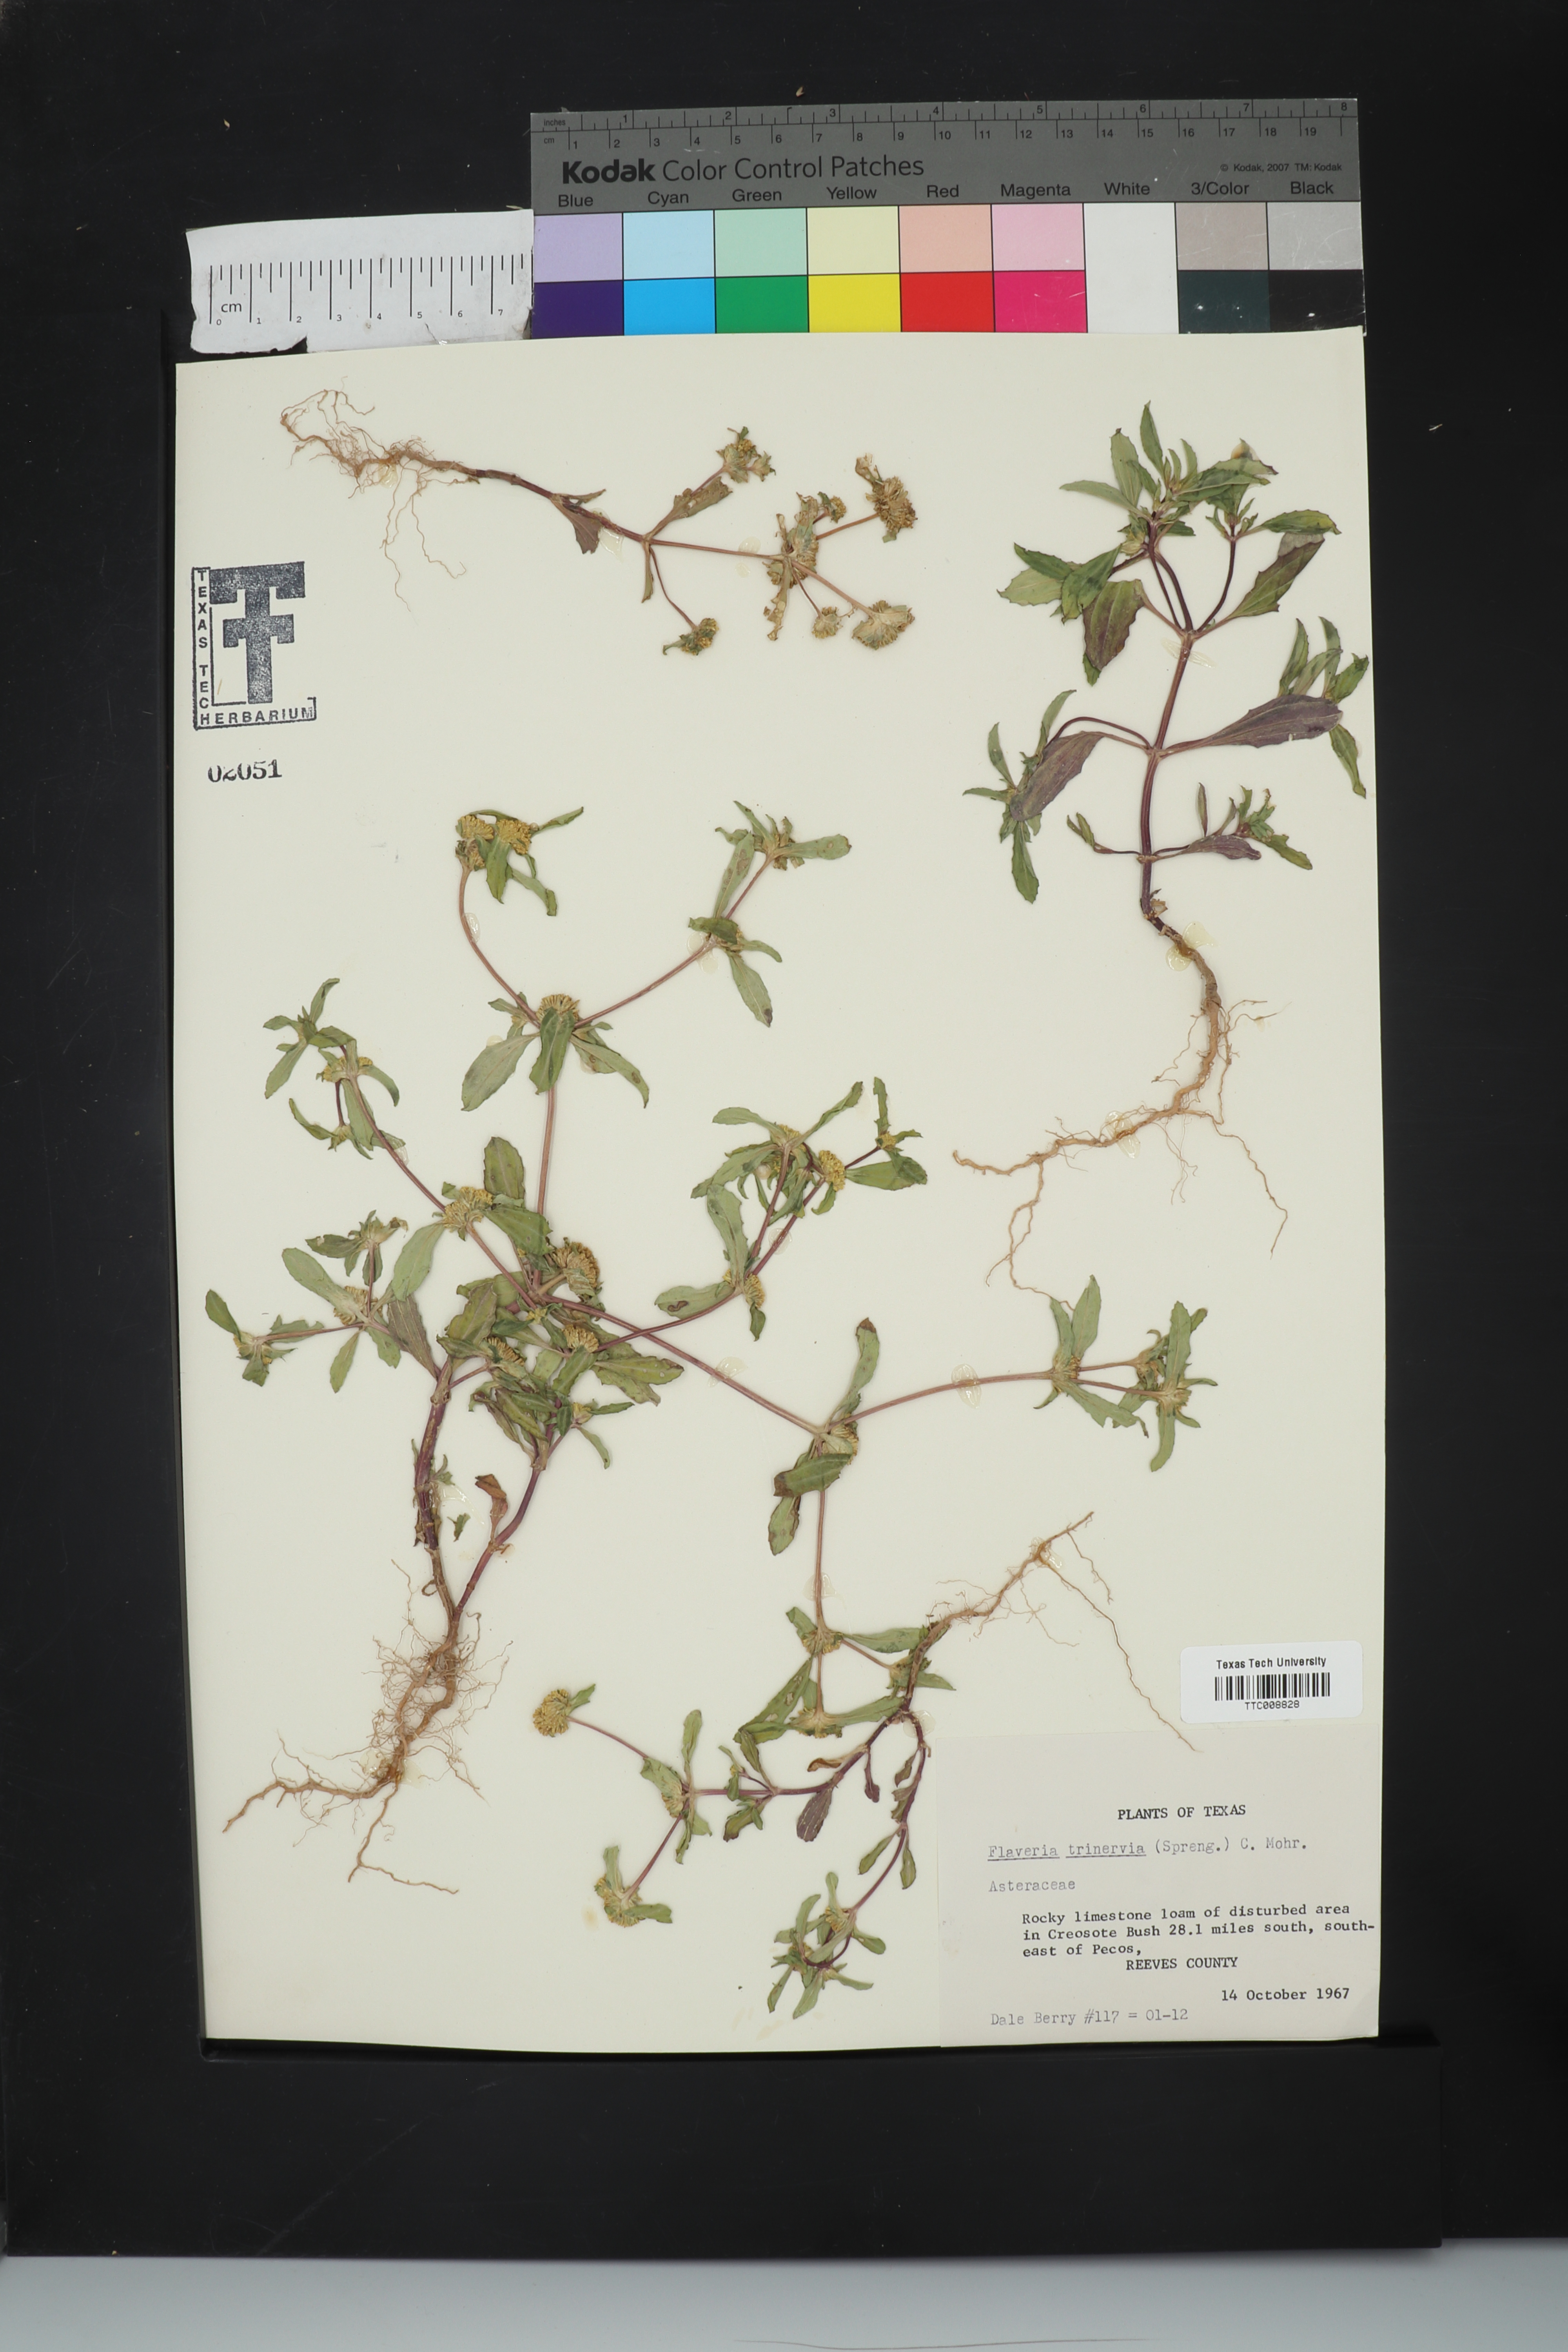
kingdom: Plantae
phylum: Tracheophyta
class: Magnoliopsida
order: Asterales
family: Asteraceae
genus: Flaveria
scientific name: Flaveria trinervia
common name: Clustered yellowtops
